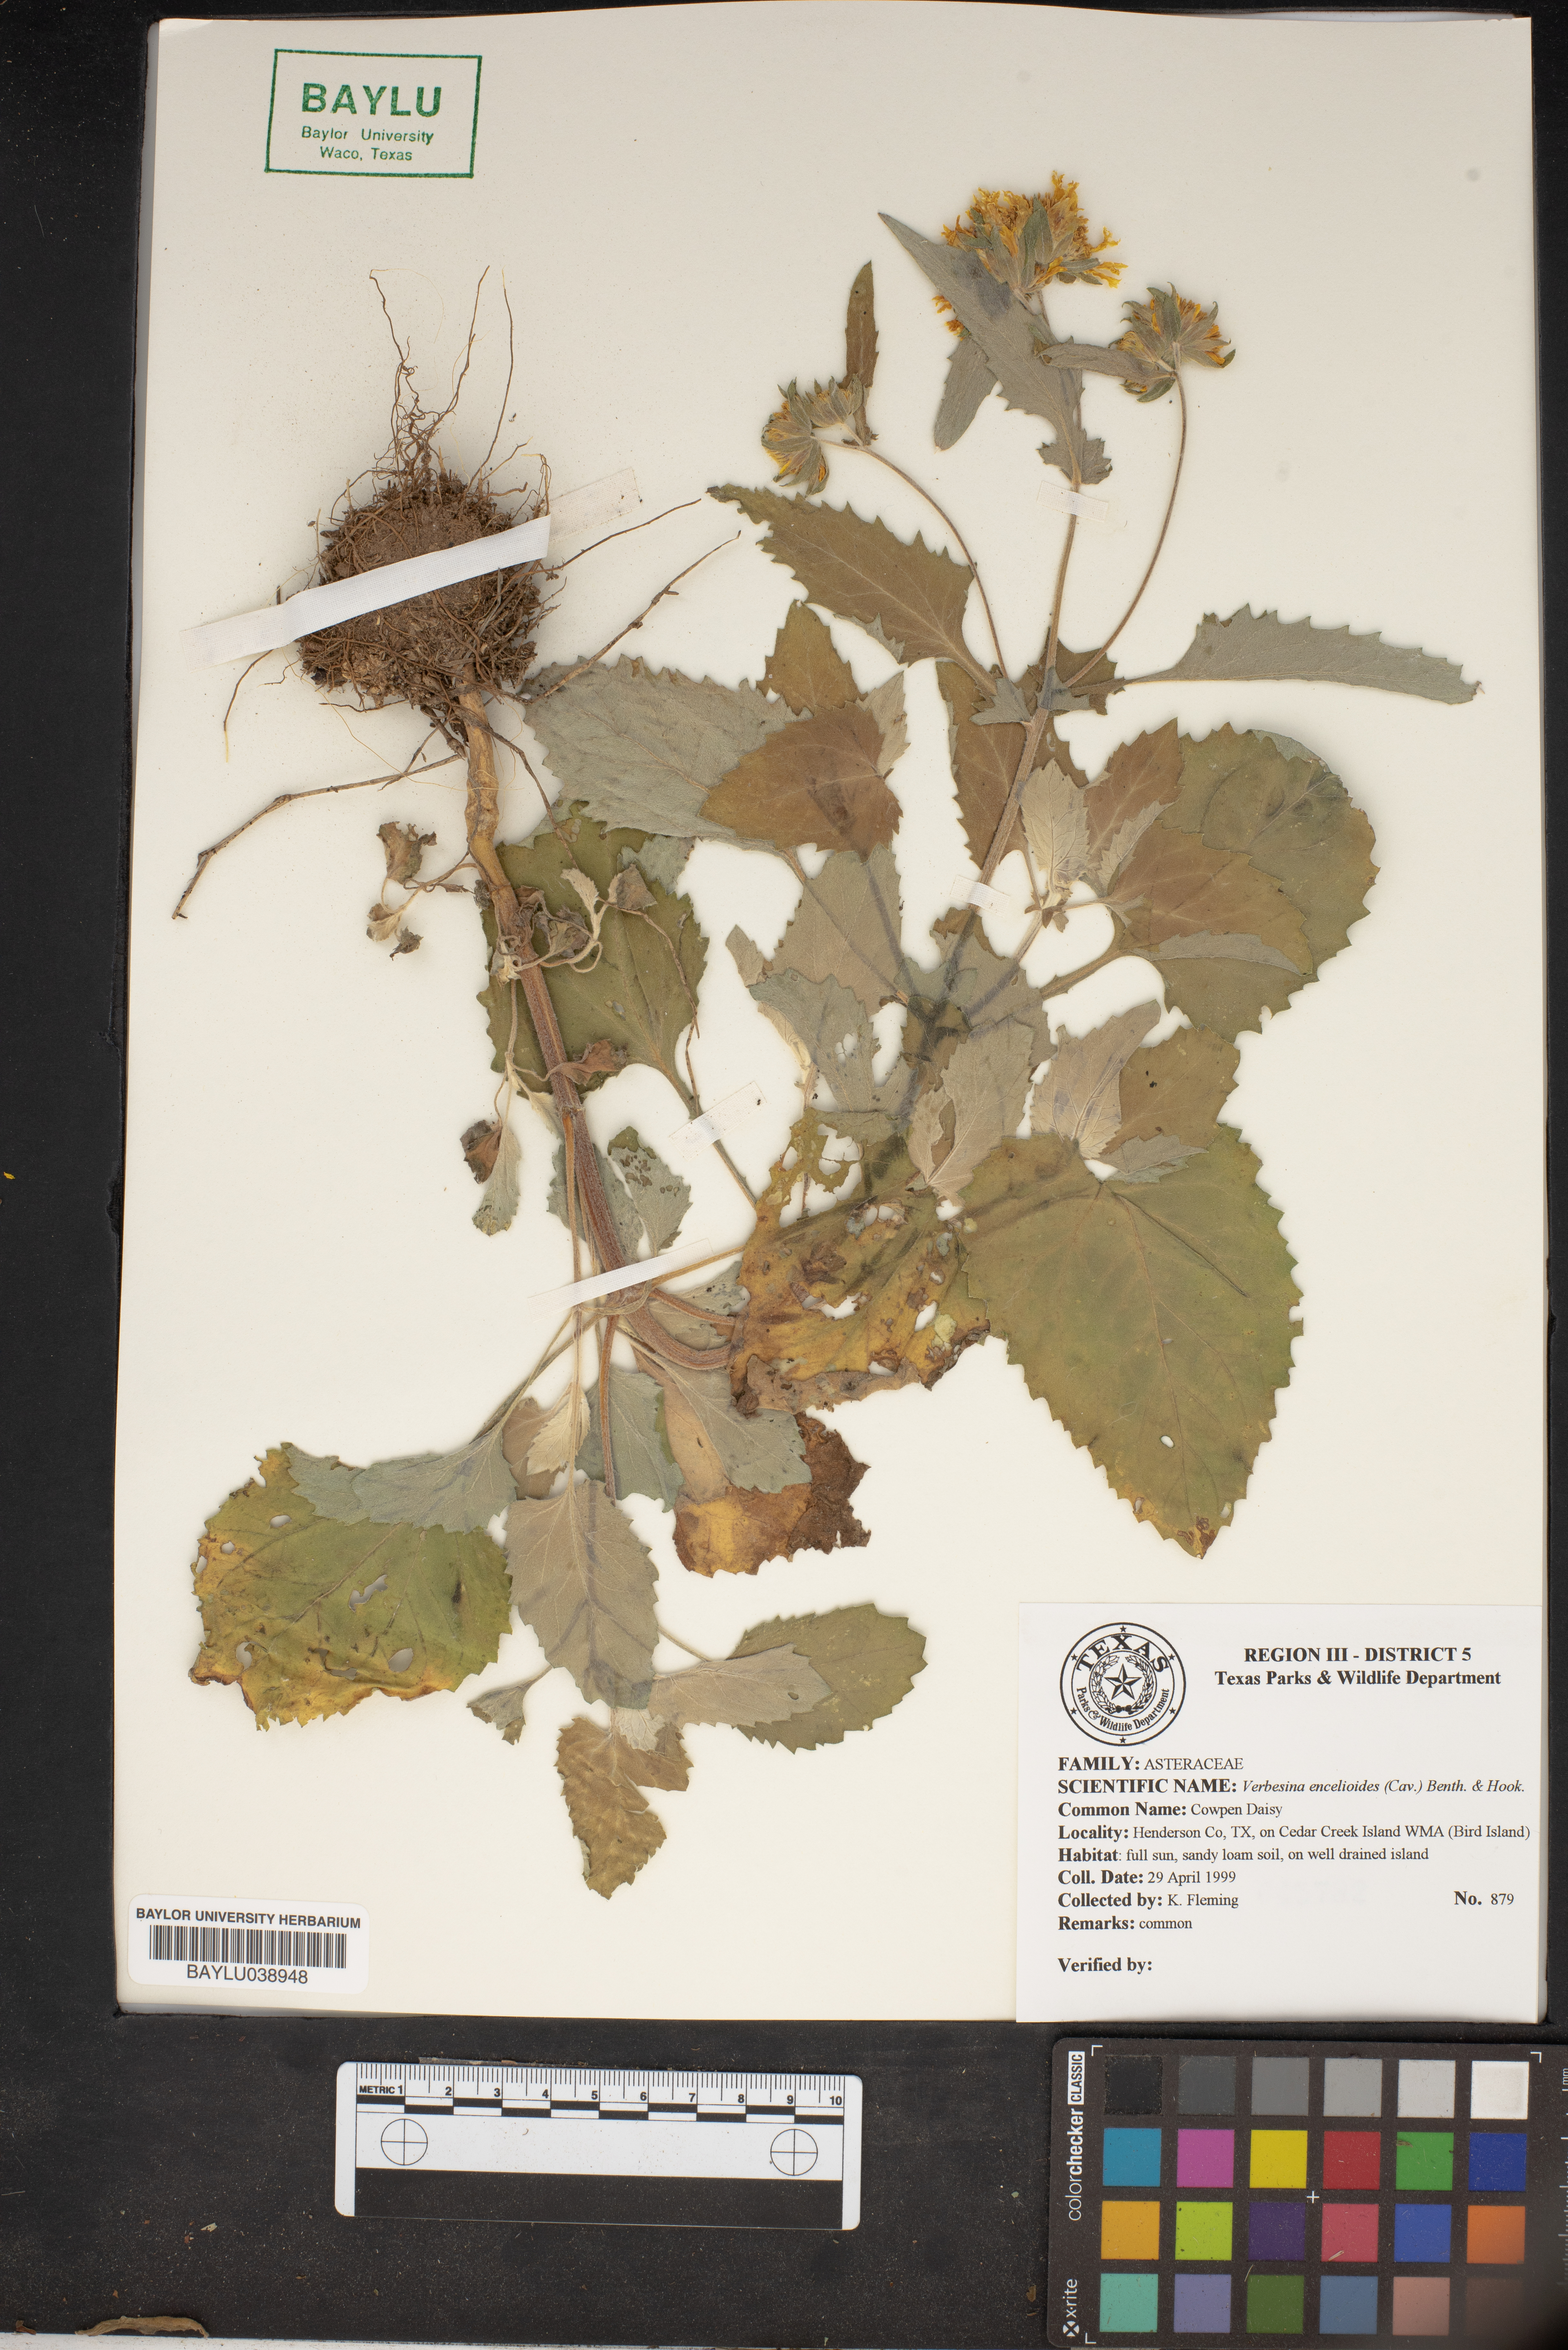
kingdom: Plantae
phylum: Tracheophyta
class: Magnoliopsida
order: Asterales
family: Asteraceae
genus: Verbesina
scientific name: Verbesina encelioides
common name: Golden crownbeard
